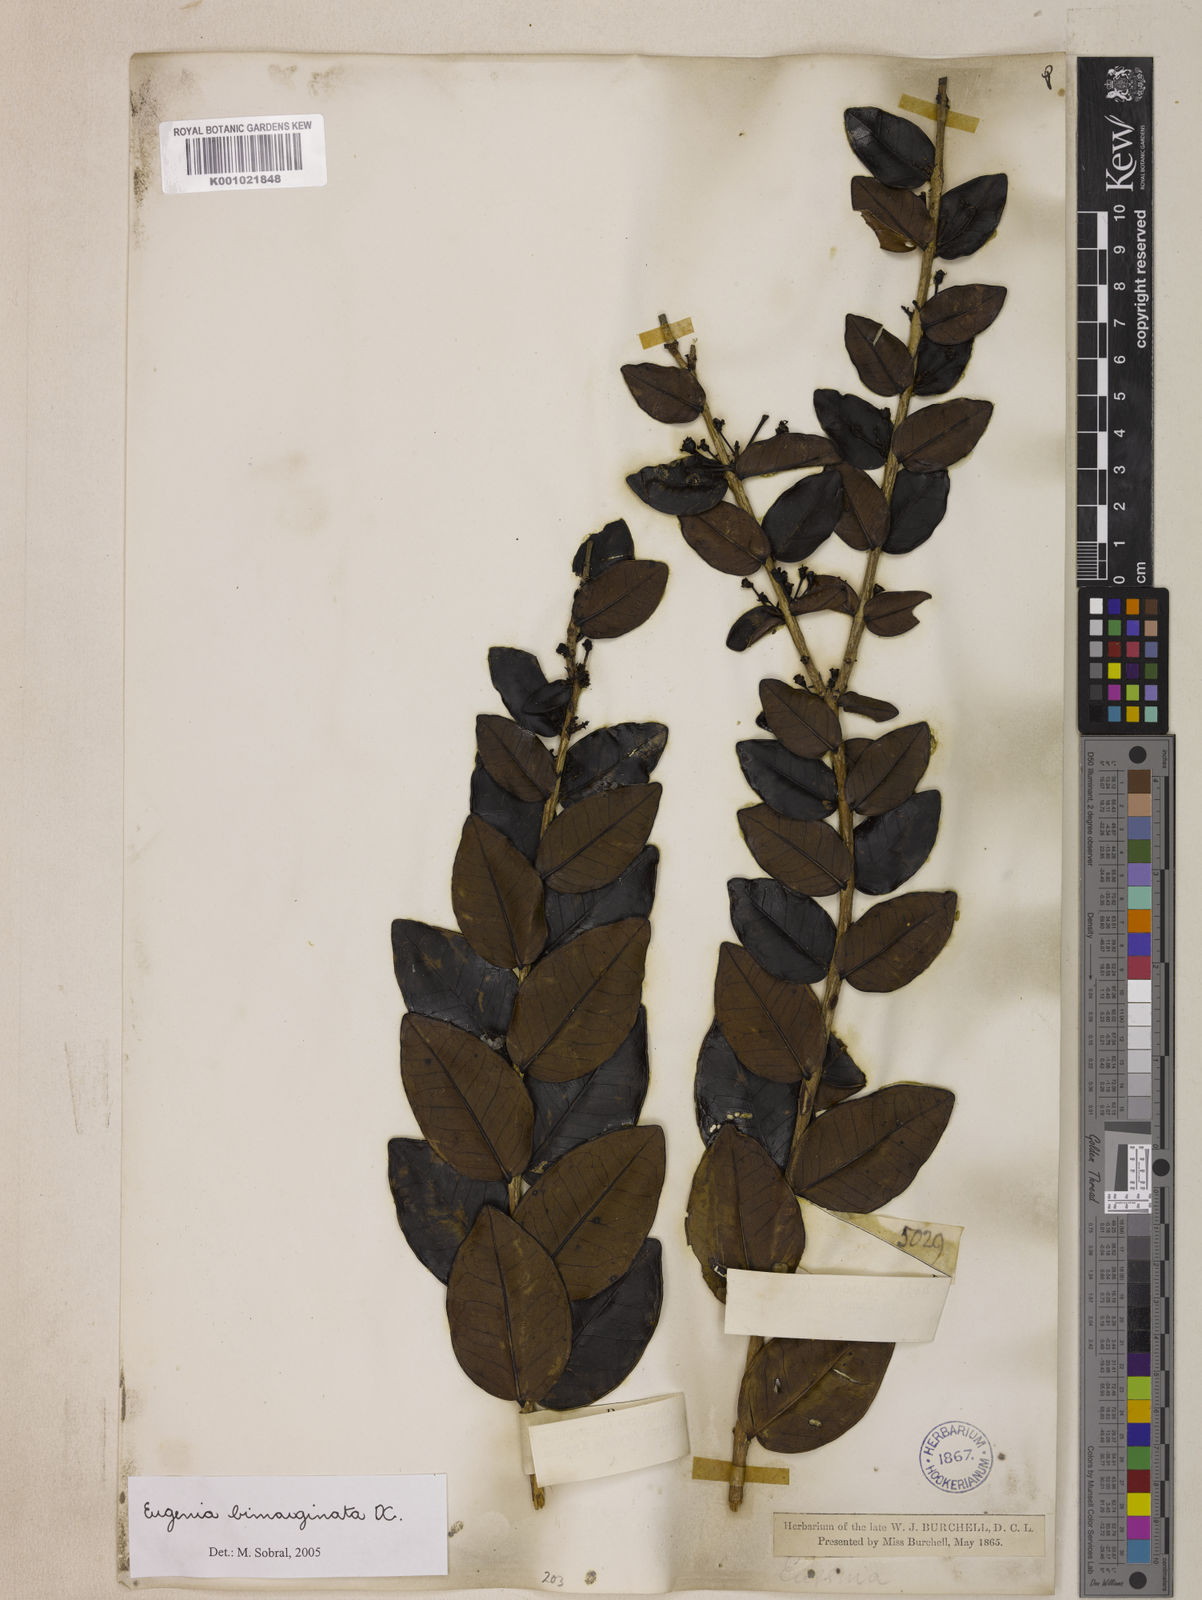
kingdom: Plantae
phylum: Tracheophyta
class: Magnoliopsida
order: Myrtales
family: Myrtaceae
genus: Eugenia
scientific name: Eugenia bimarginata
